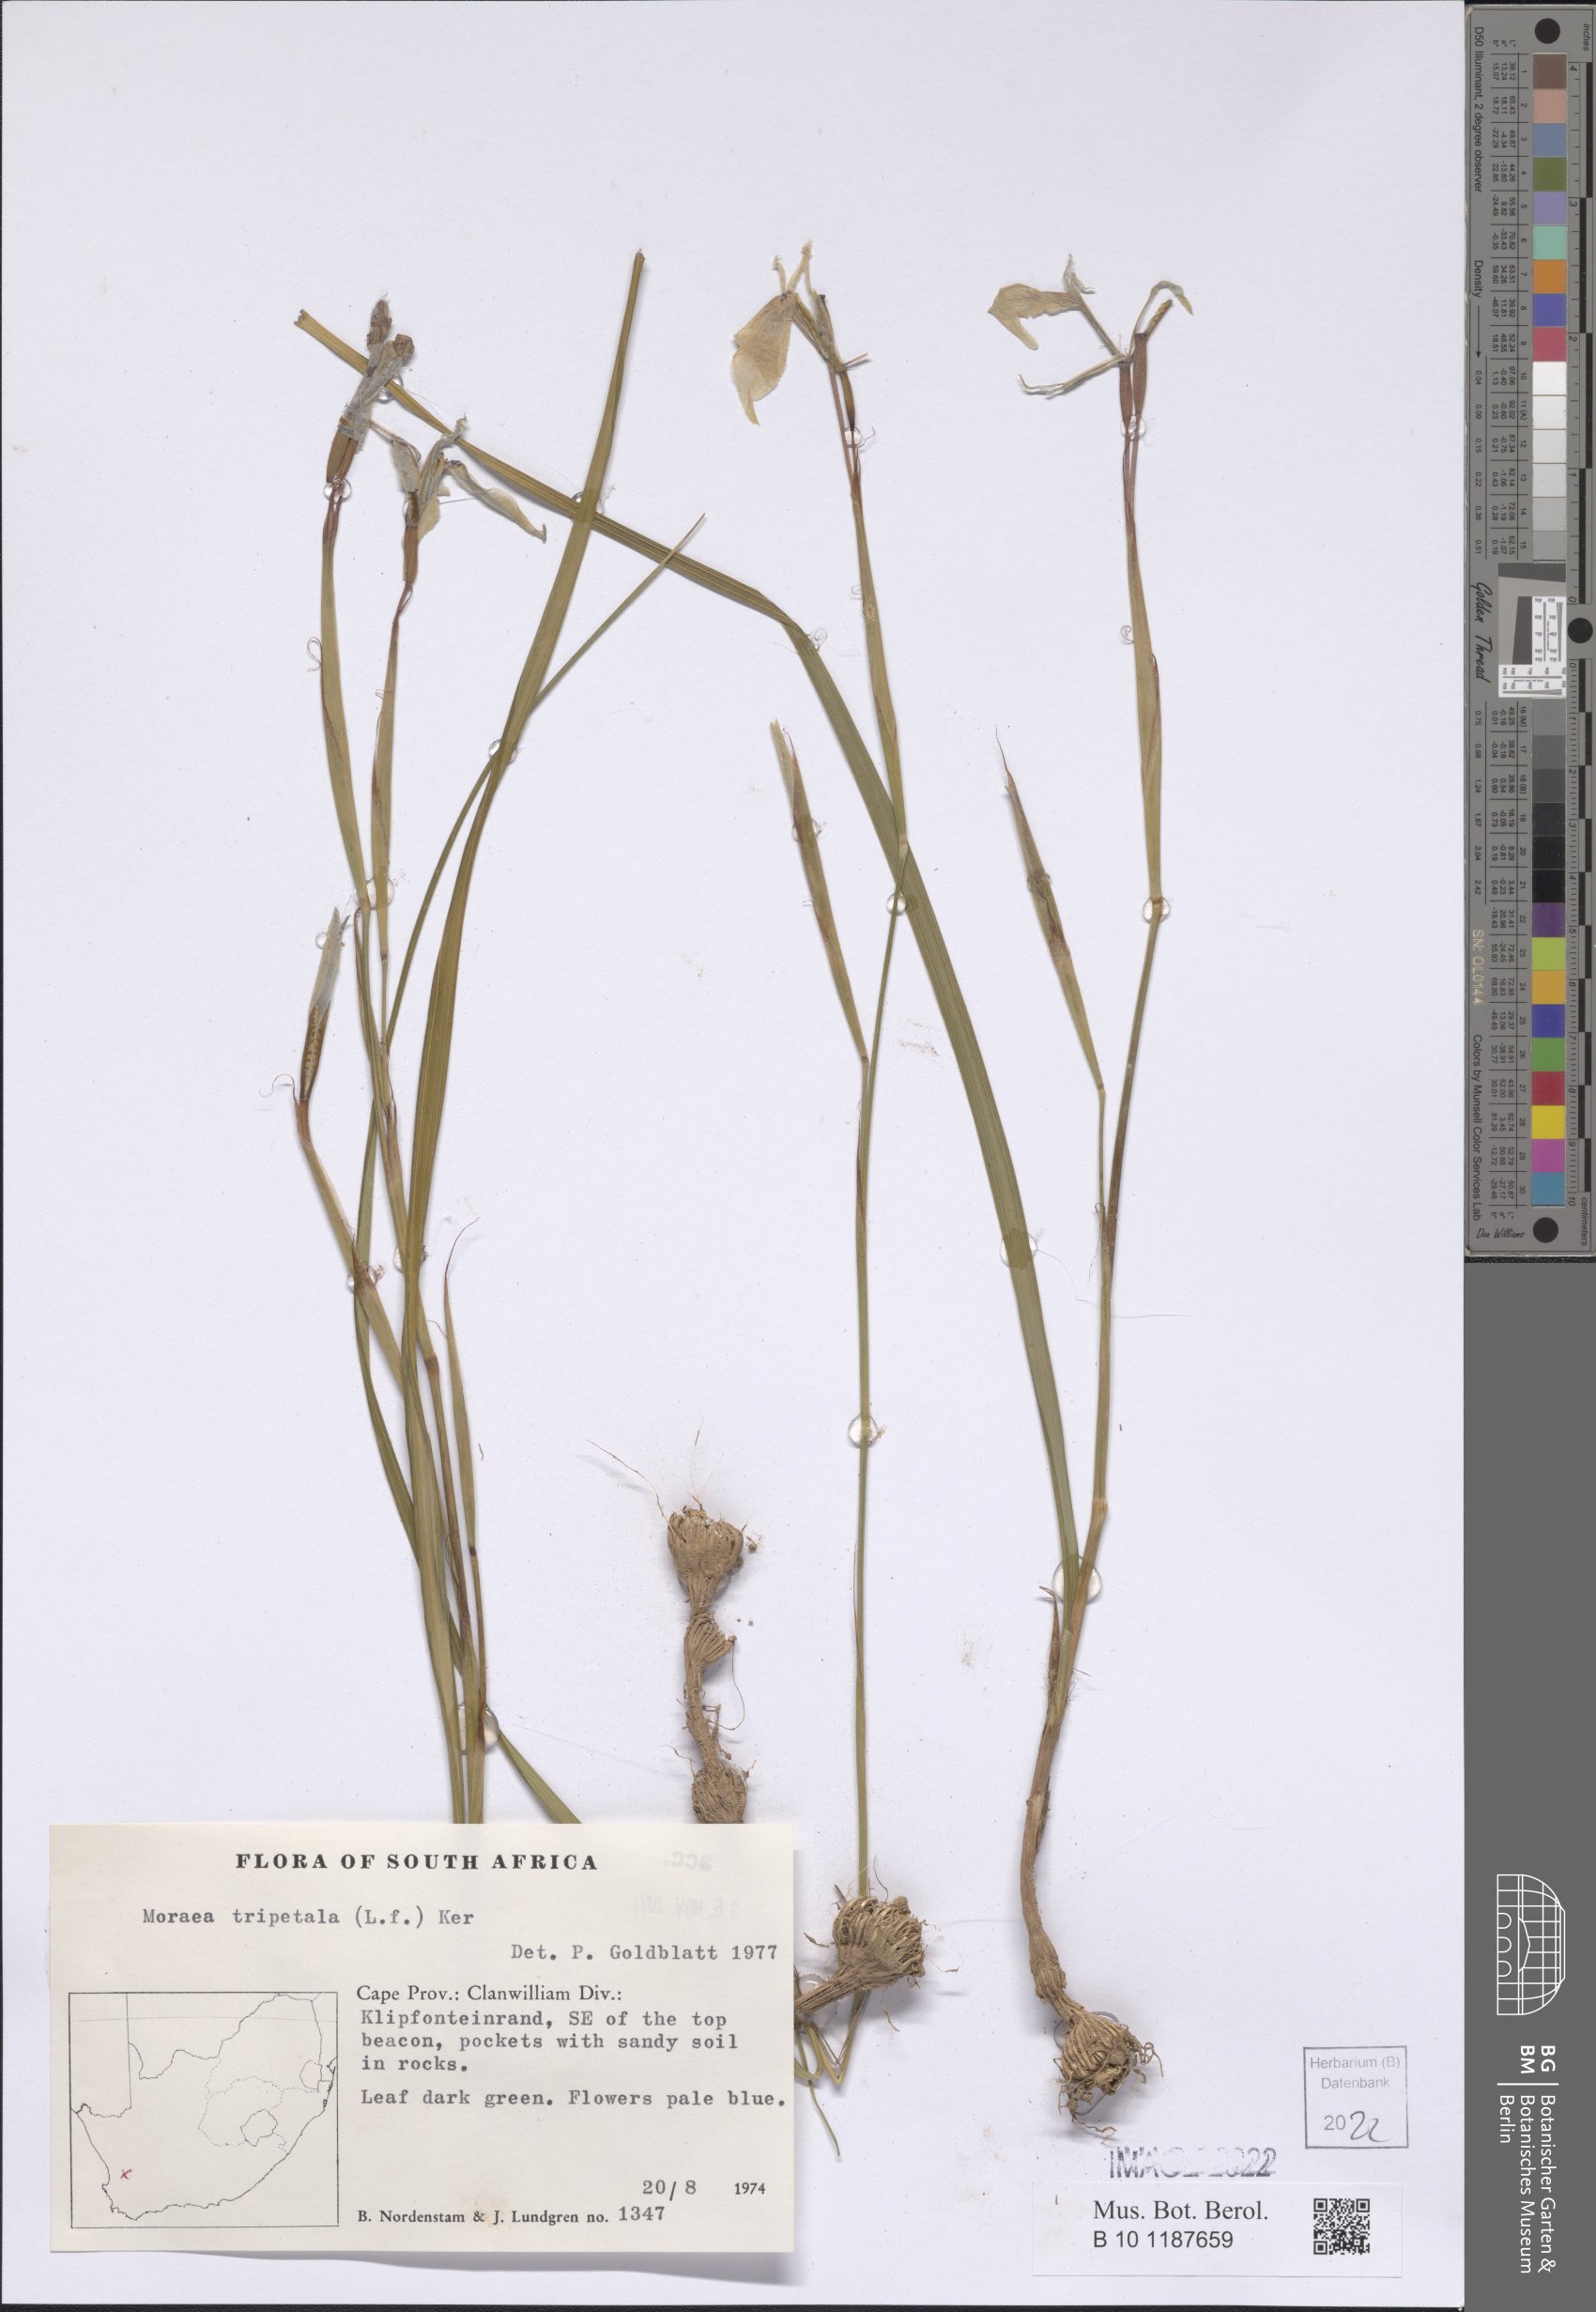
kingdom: Plantae
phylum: Tracheophyta
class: Liliopsida
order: Asparagales
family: Iridaceae
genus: Moraea
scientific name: Moraea tripetala
